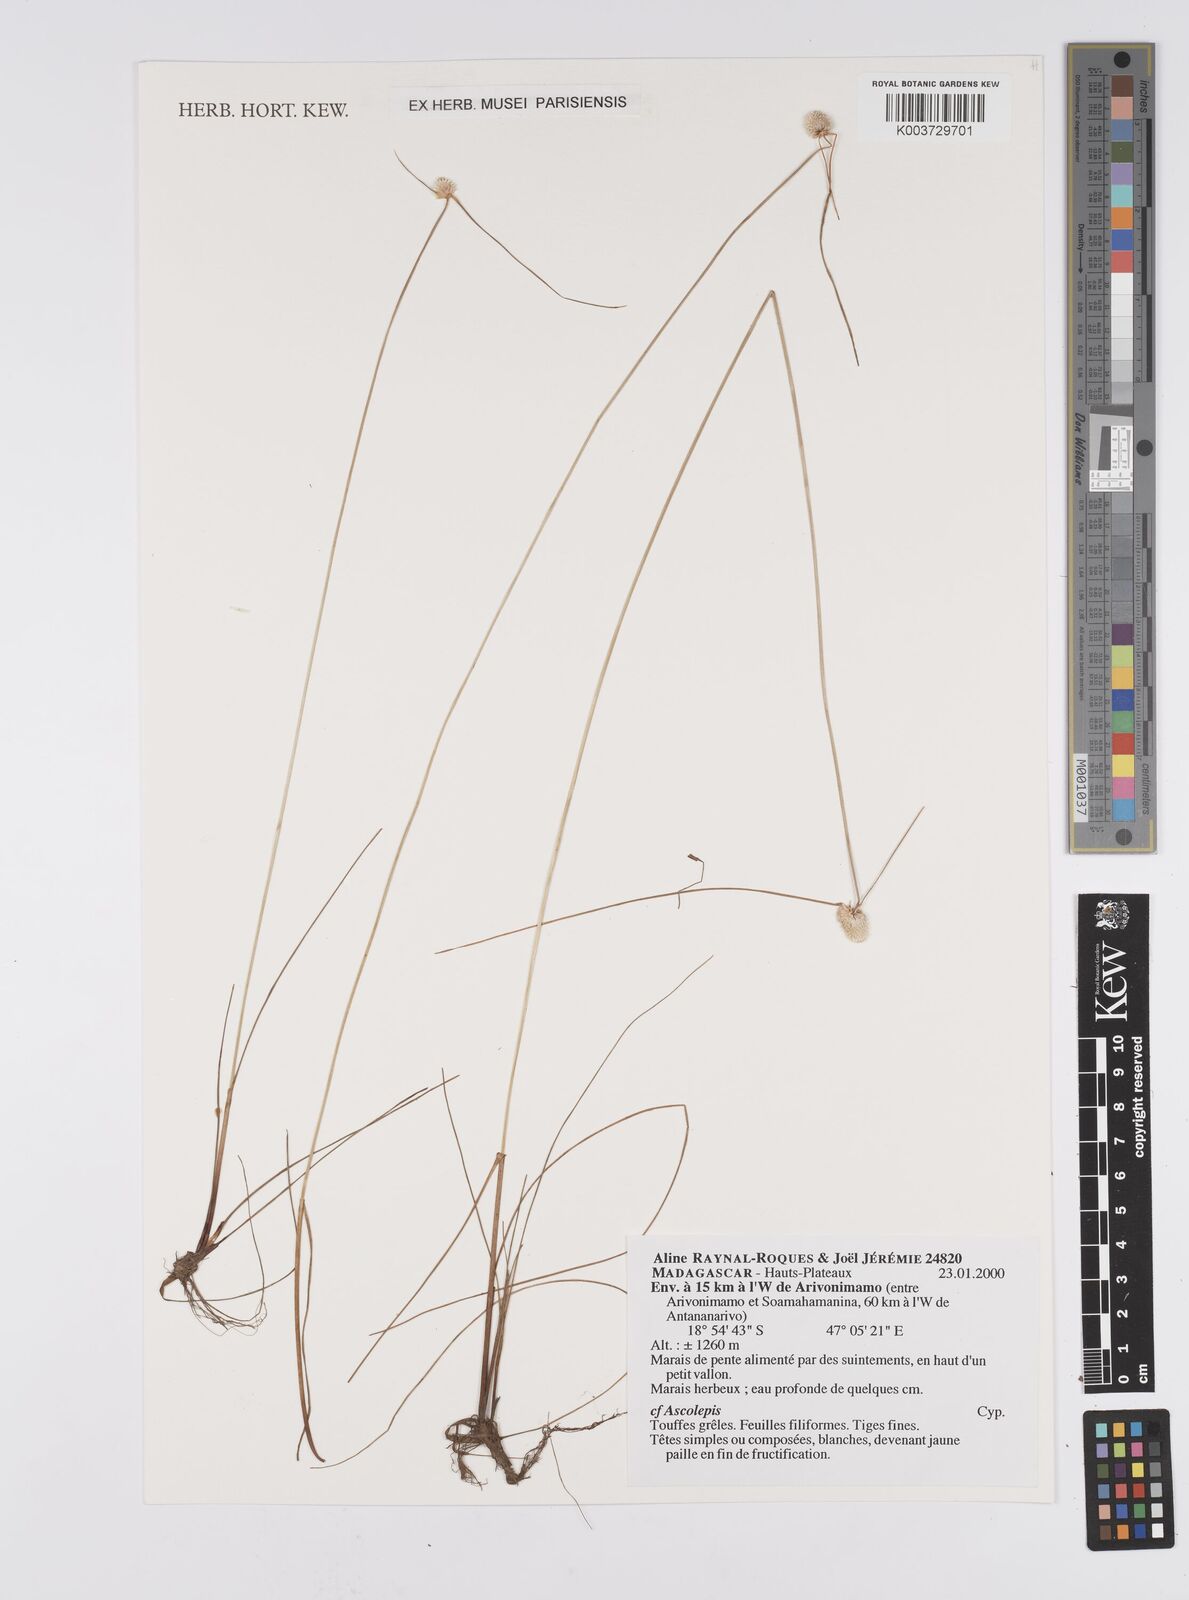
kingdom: Plantae
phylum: Tracheophyta
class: Liliopsida
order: Poales
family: Cyperaceae
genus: Cyperus
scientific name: Cyperus brasiliensis
